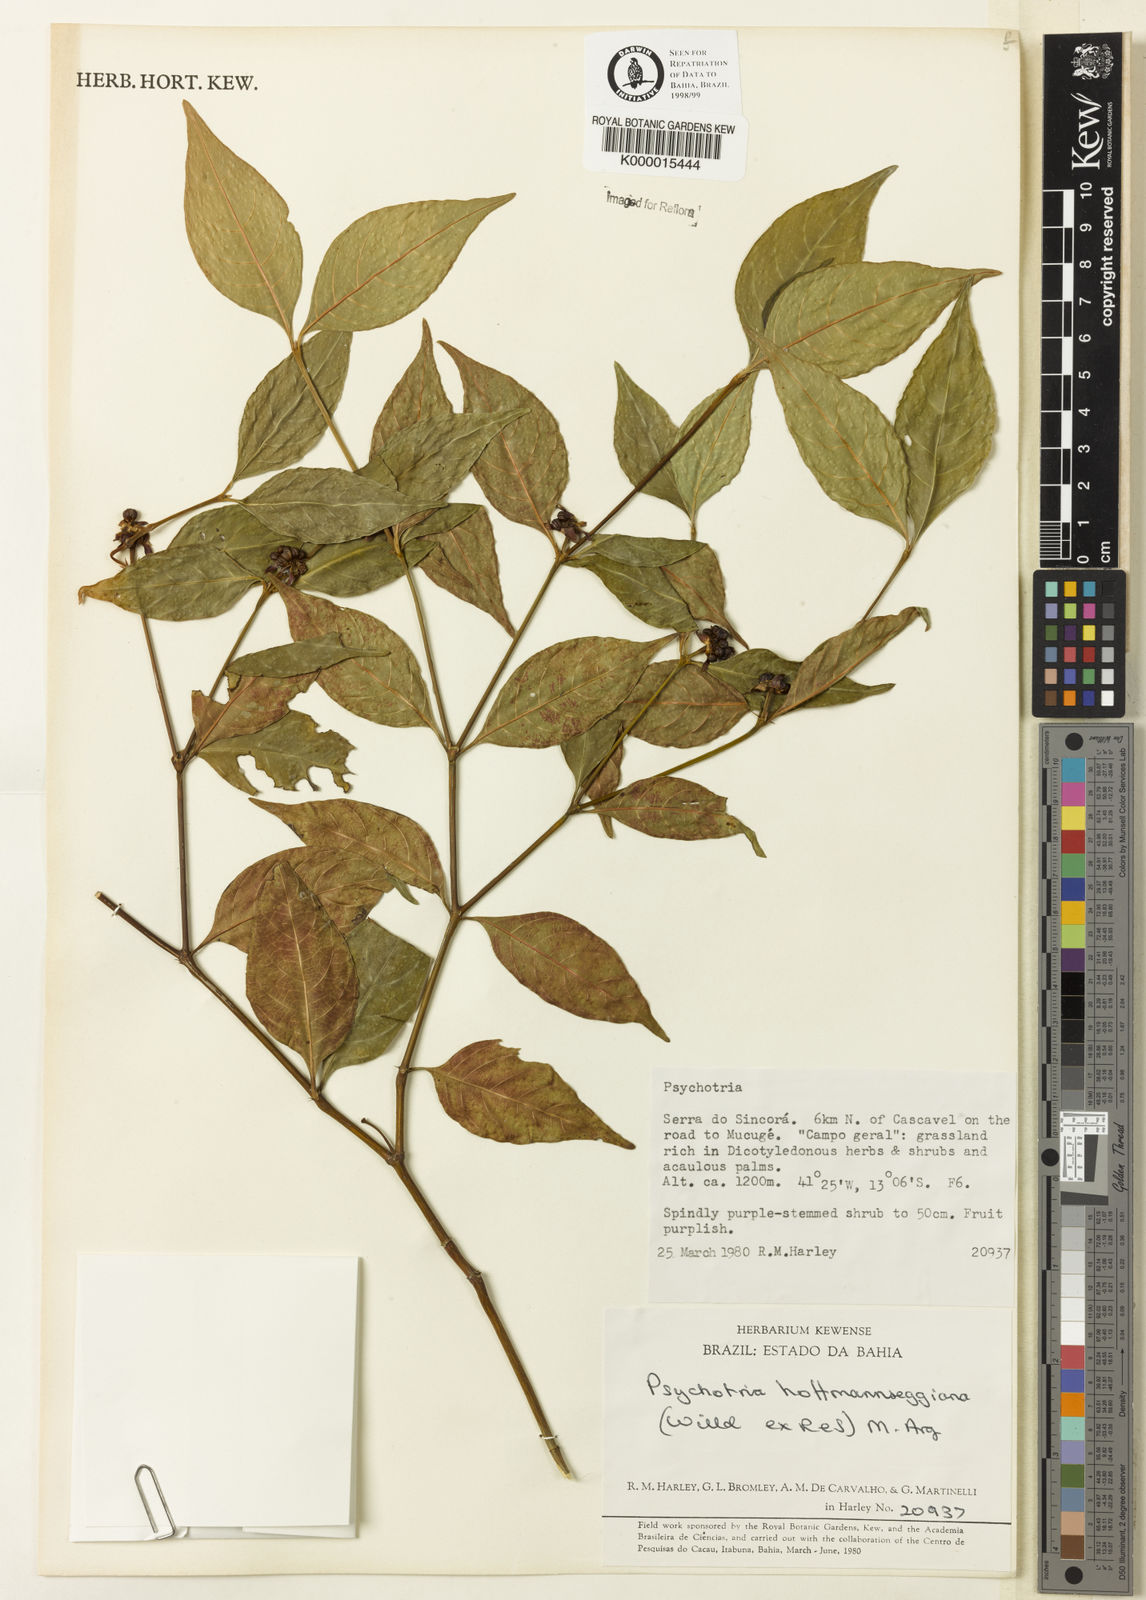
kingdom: Plantae
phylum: Tracheophyta
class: Magnoliopsida
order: Gentianales
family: Rubiaceae
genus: Psychotria
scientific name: Psychotria
